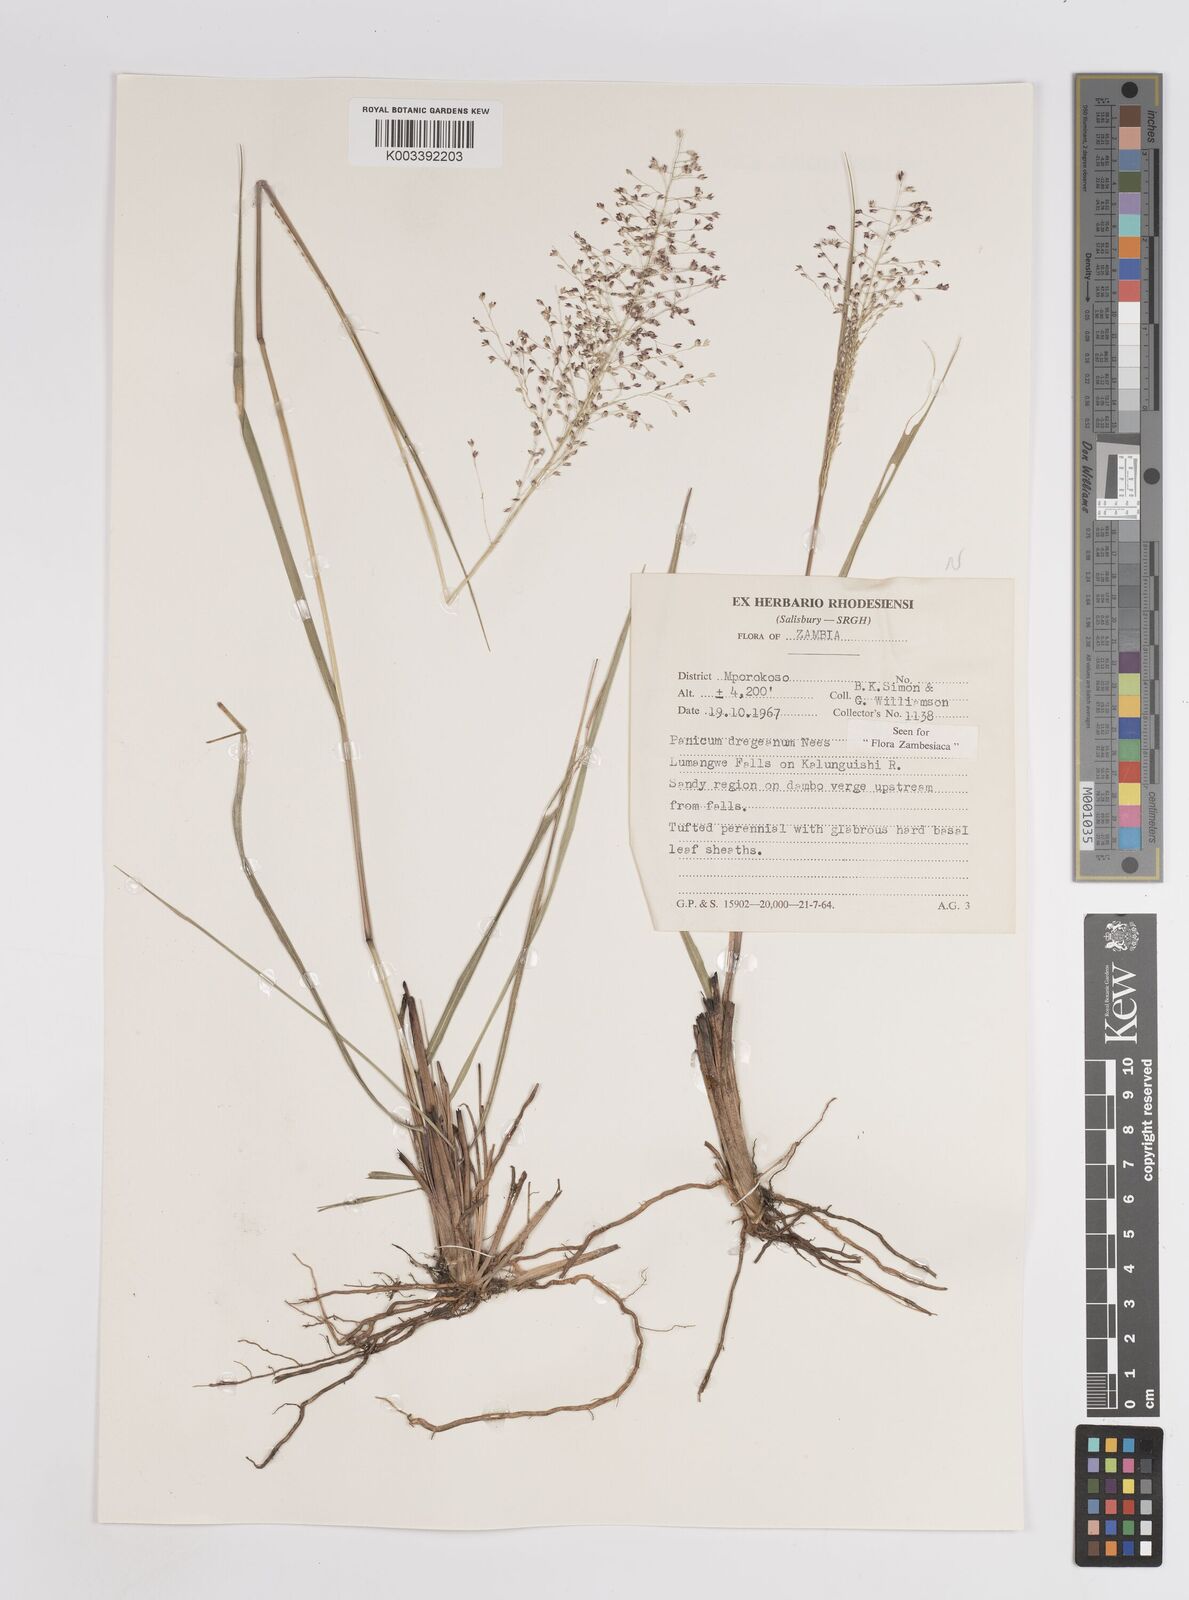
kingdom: Plantae
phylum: Tracheophyta
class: Liliopsida
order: Poales
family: Poaceae
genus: Panicum
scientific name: Panicum dregeanum
